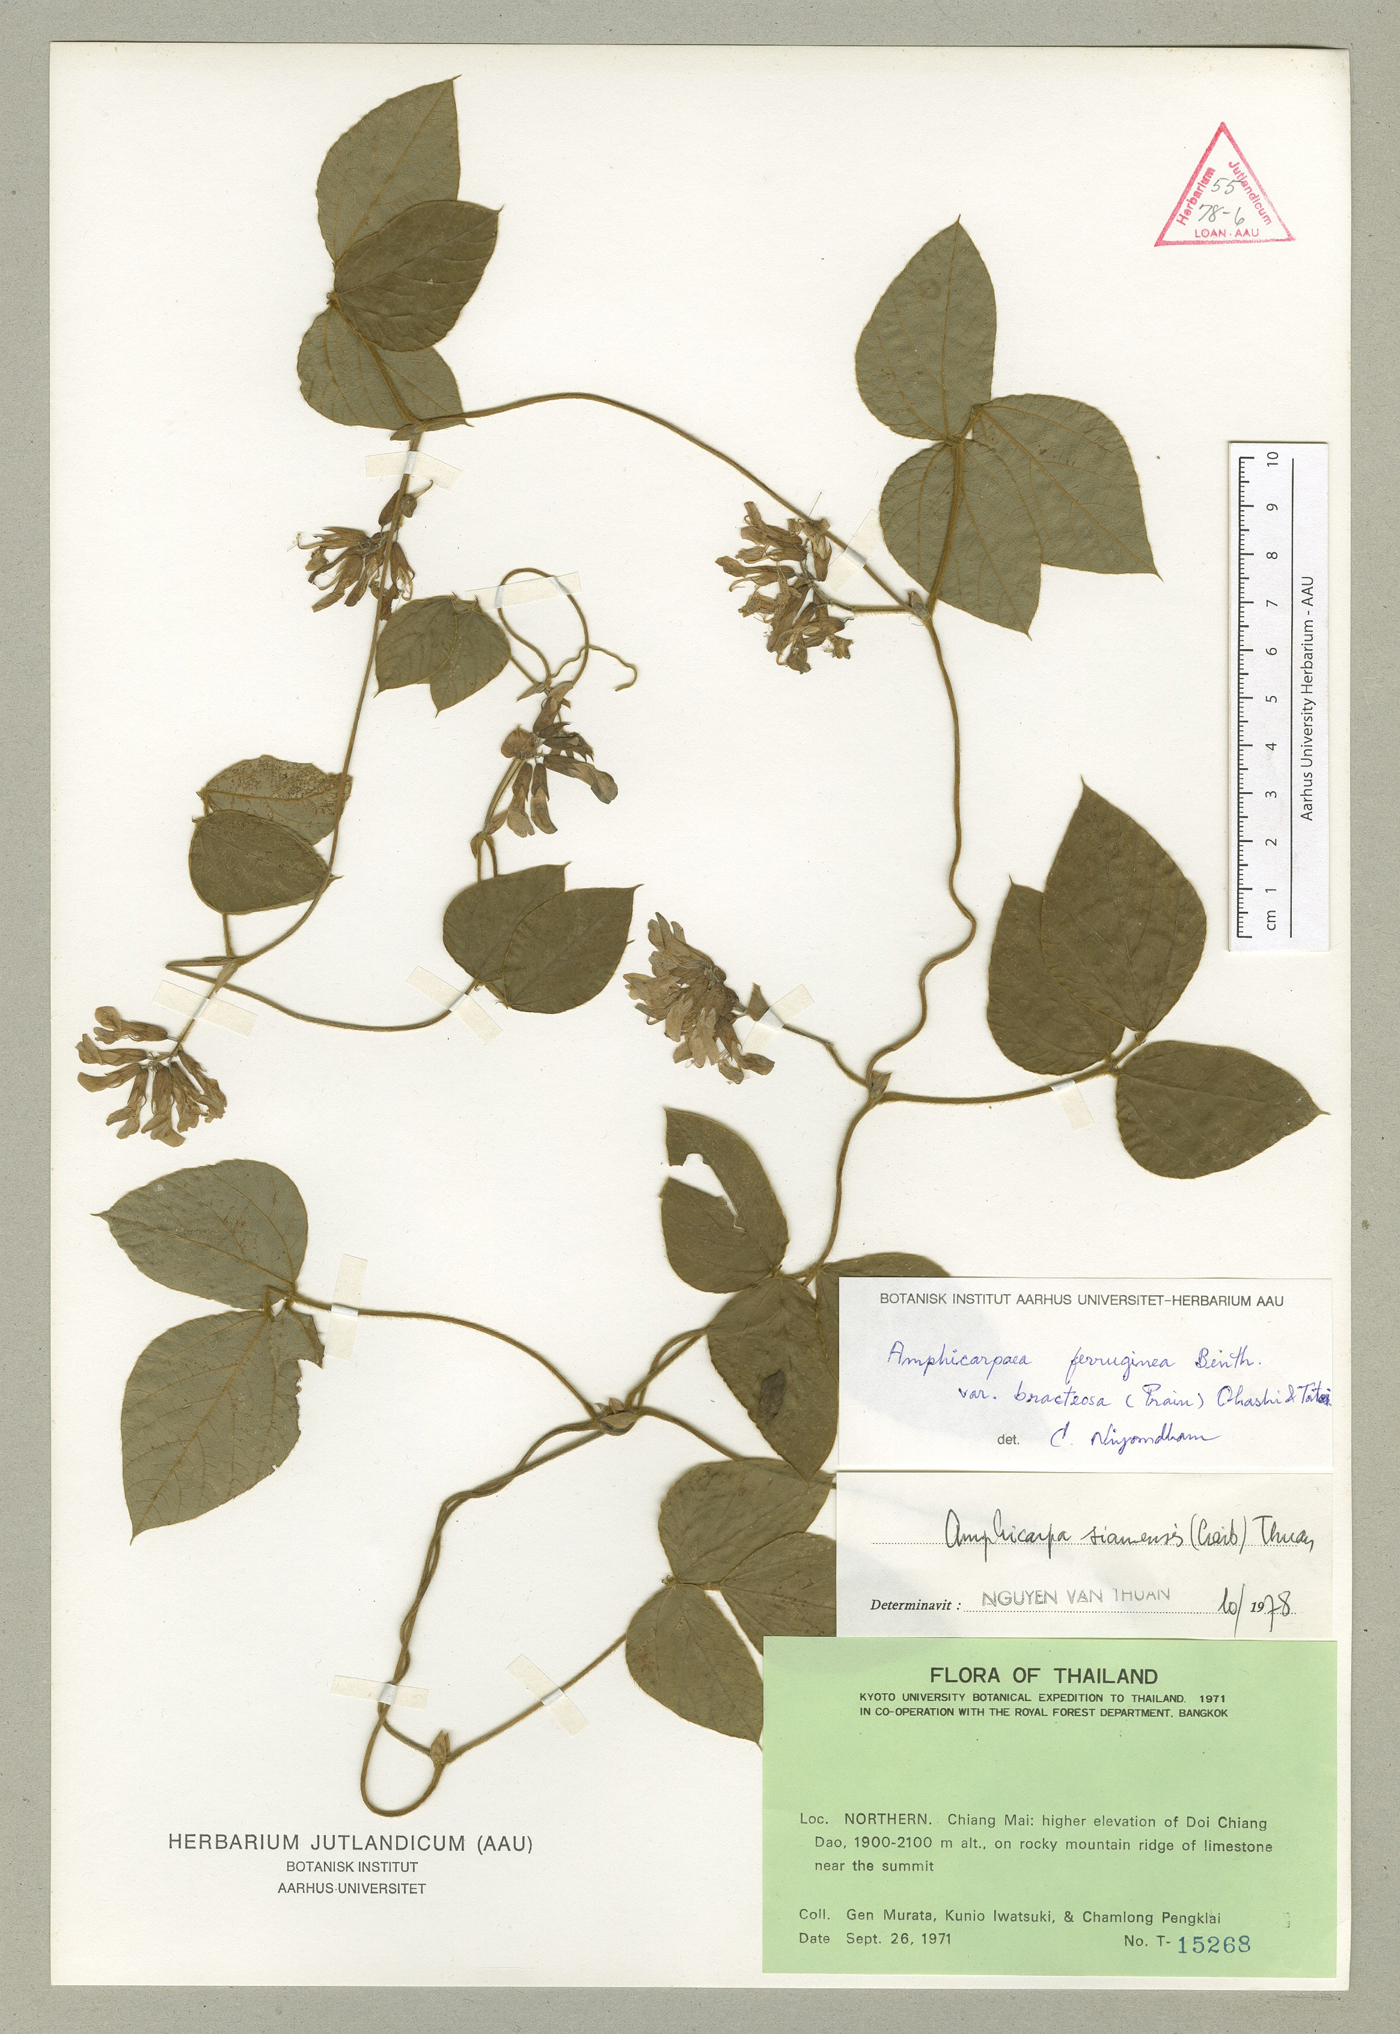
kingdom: Plantae
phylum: Tracheophyta
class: Magnoliopsida
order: Fabales
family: Fabaceae
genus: Amphicarpaea
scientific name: Amphicarpaea ferruginea
